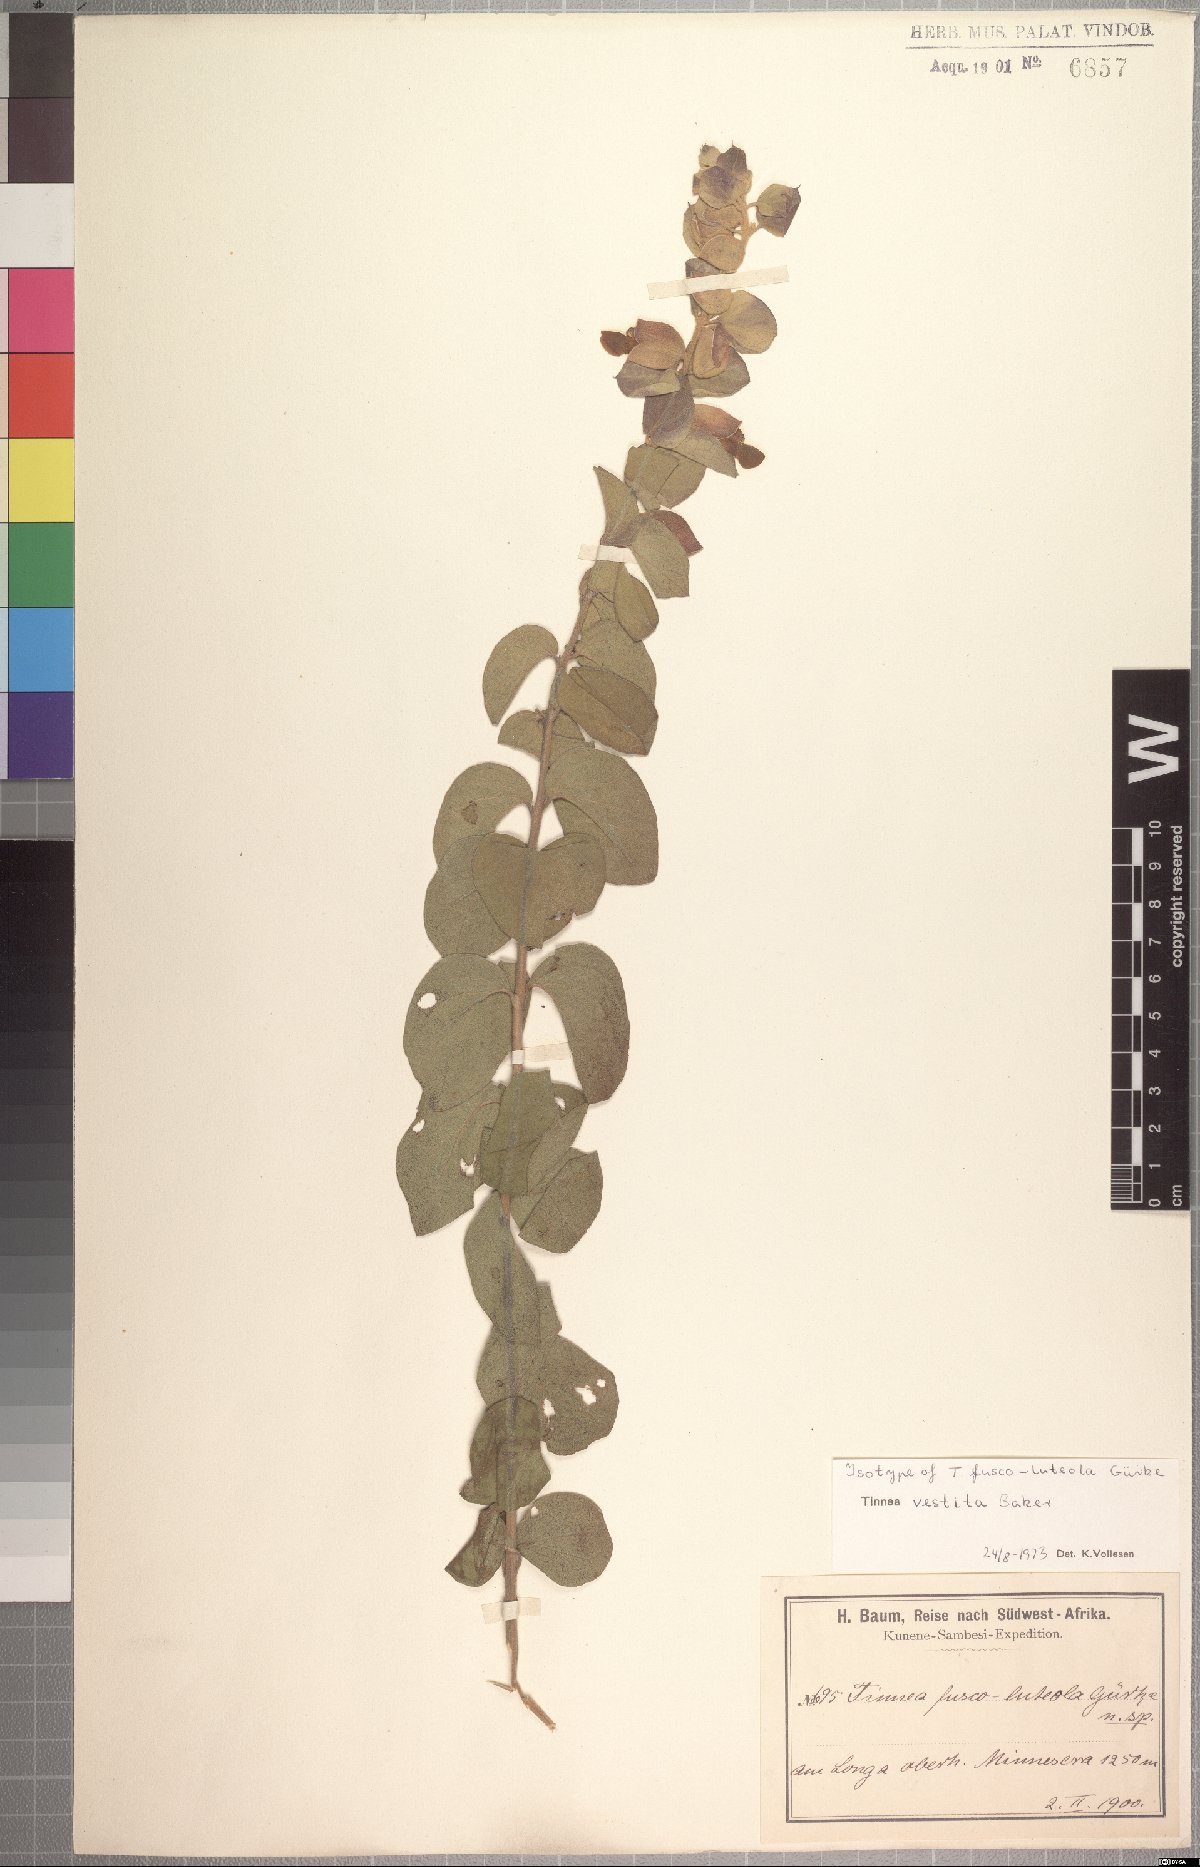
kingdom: Plantae
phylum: Tracheophyta
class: Magnoliopsida
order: Lamiales
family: Lamiaceae
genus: Tinnea
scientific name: Tinnea vestita
